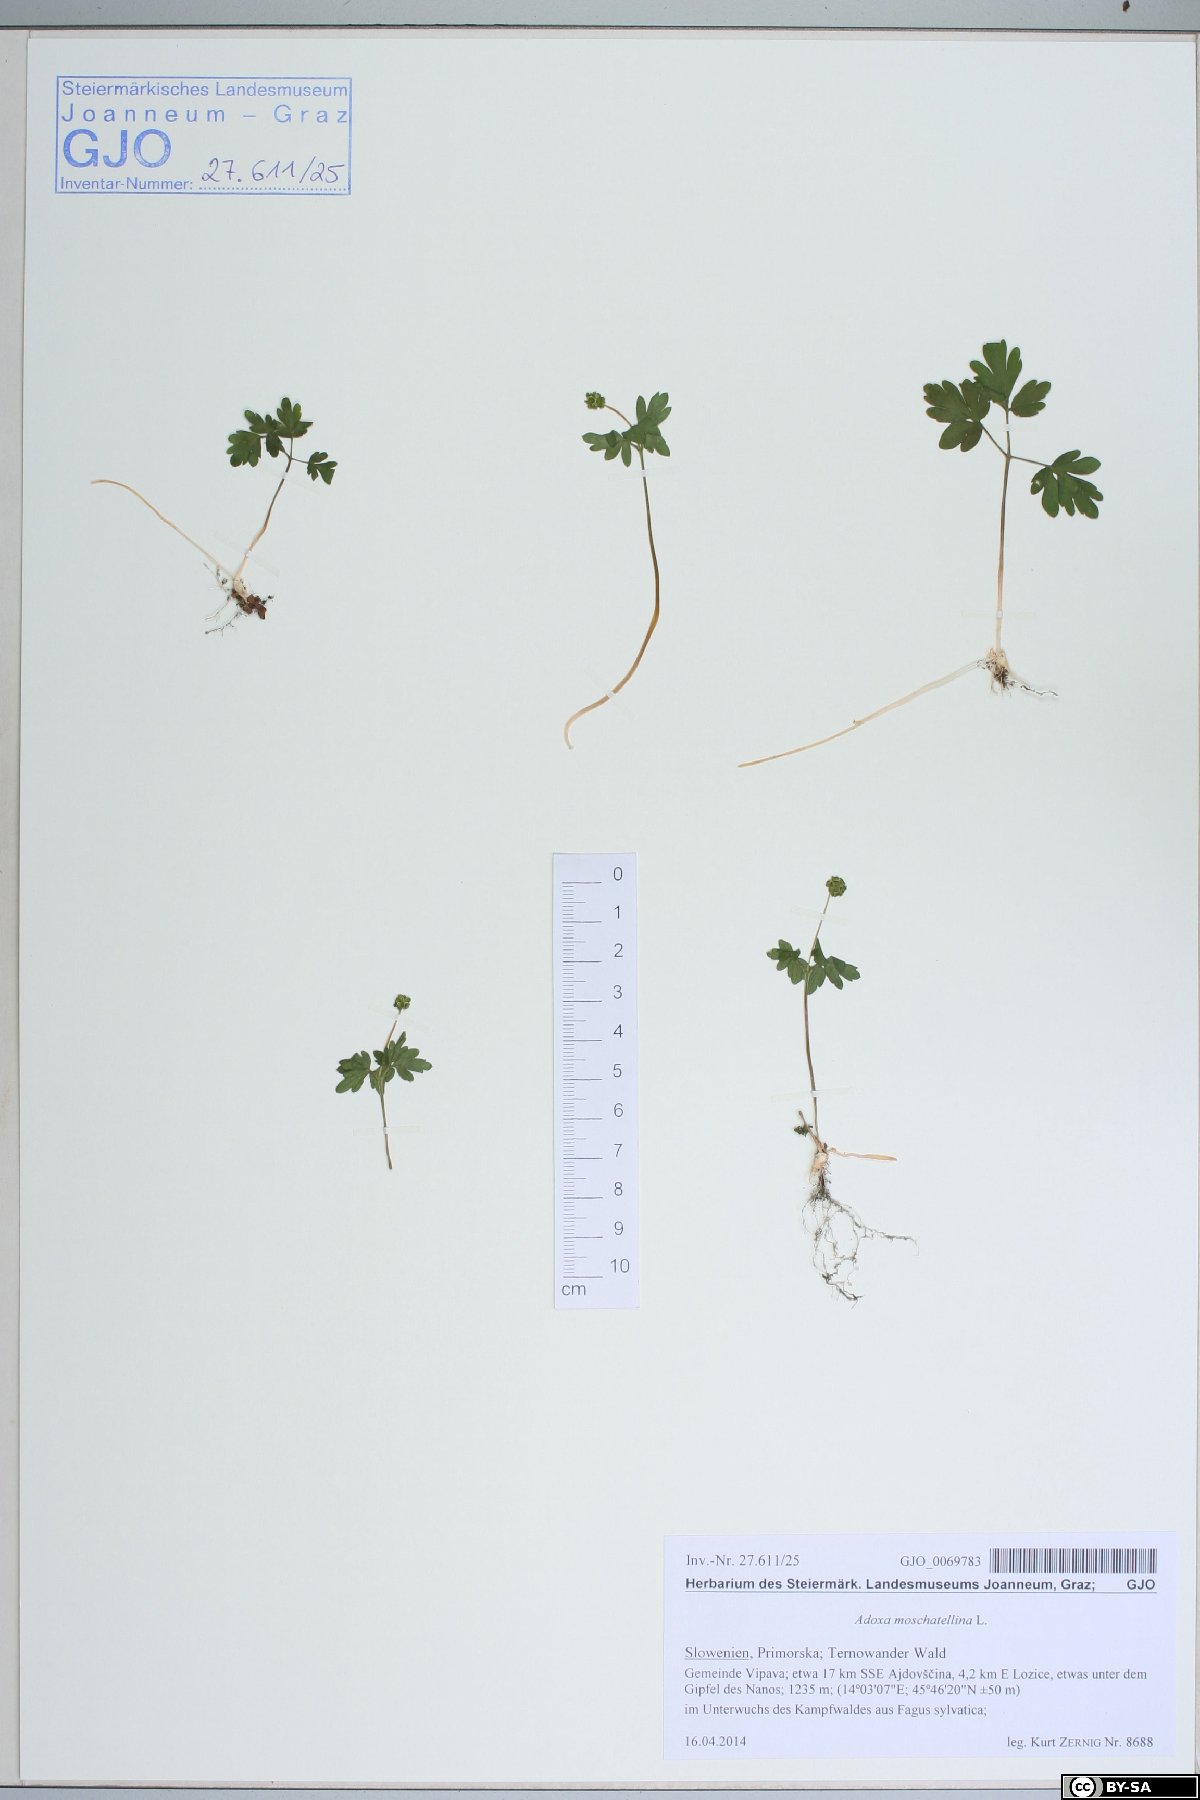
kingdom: Plantae
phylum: Tracheophyta
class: Magnoliopsida
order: Dipsacales
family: Viburnaceae
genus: Adoxa
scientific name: Adoxa moschatellina
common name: Moschatel
